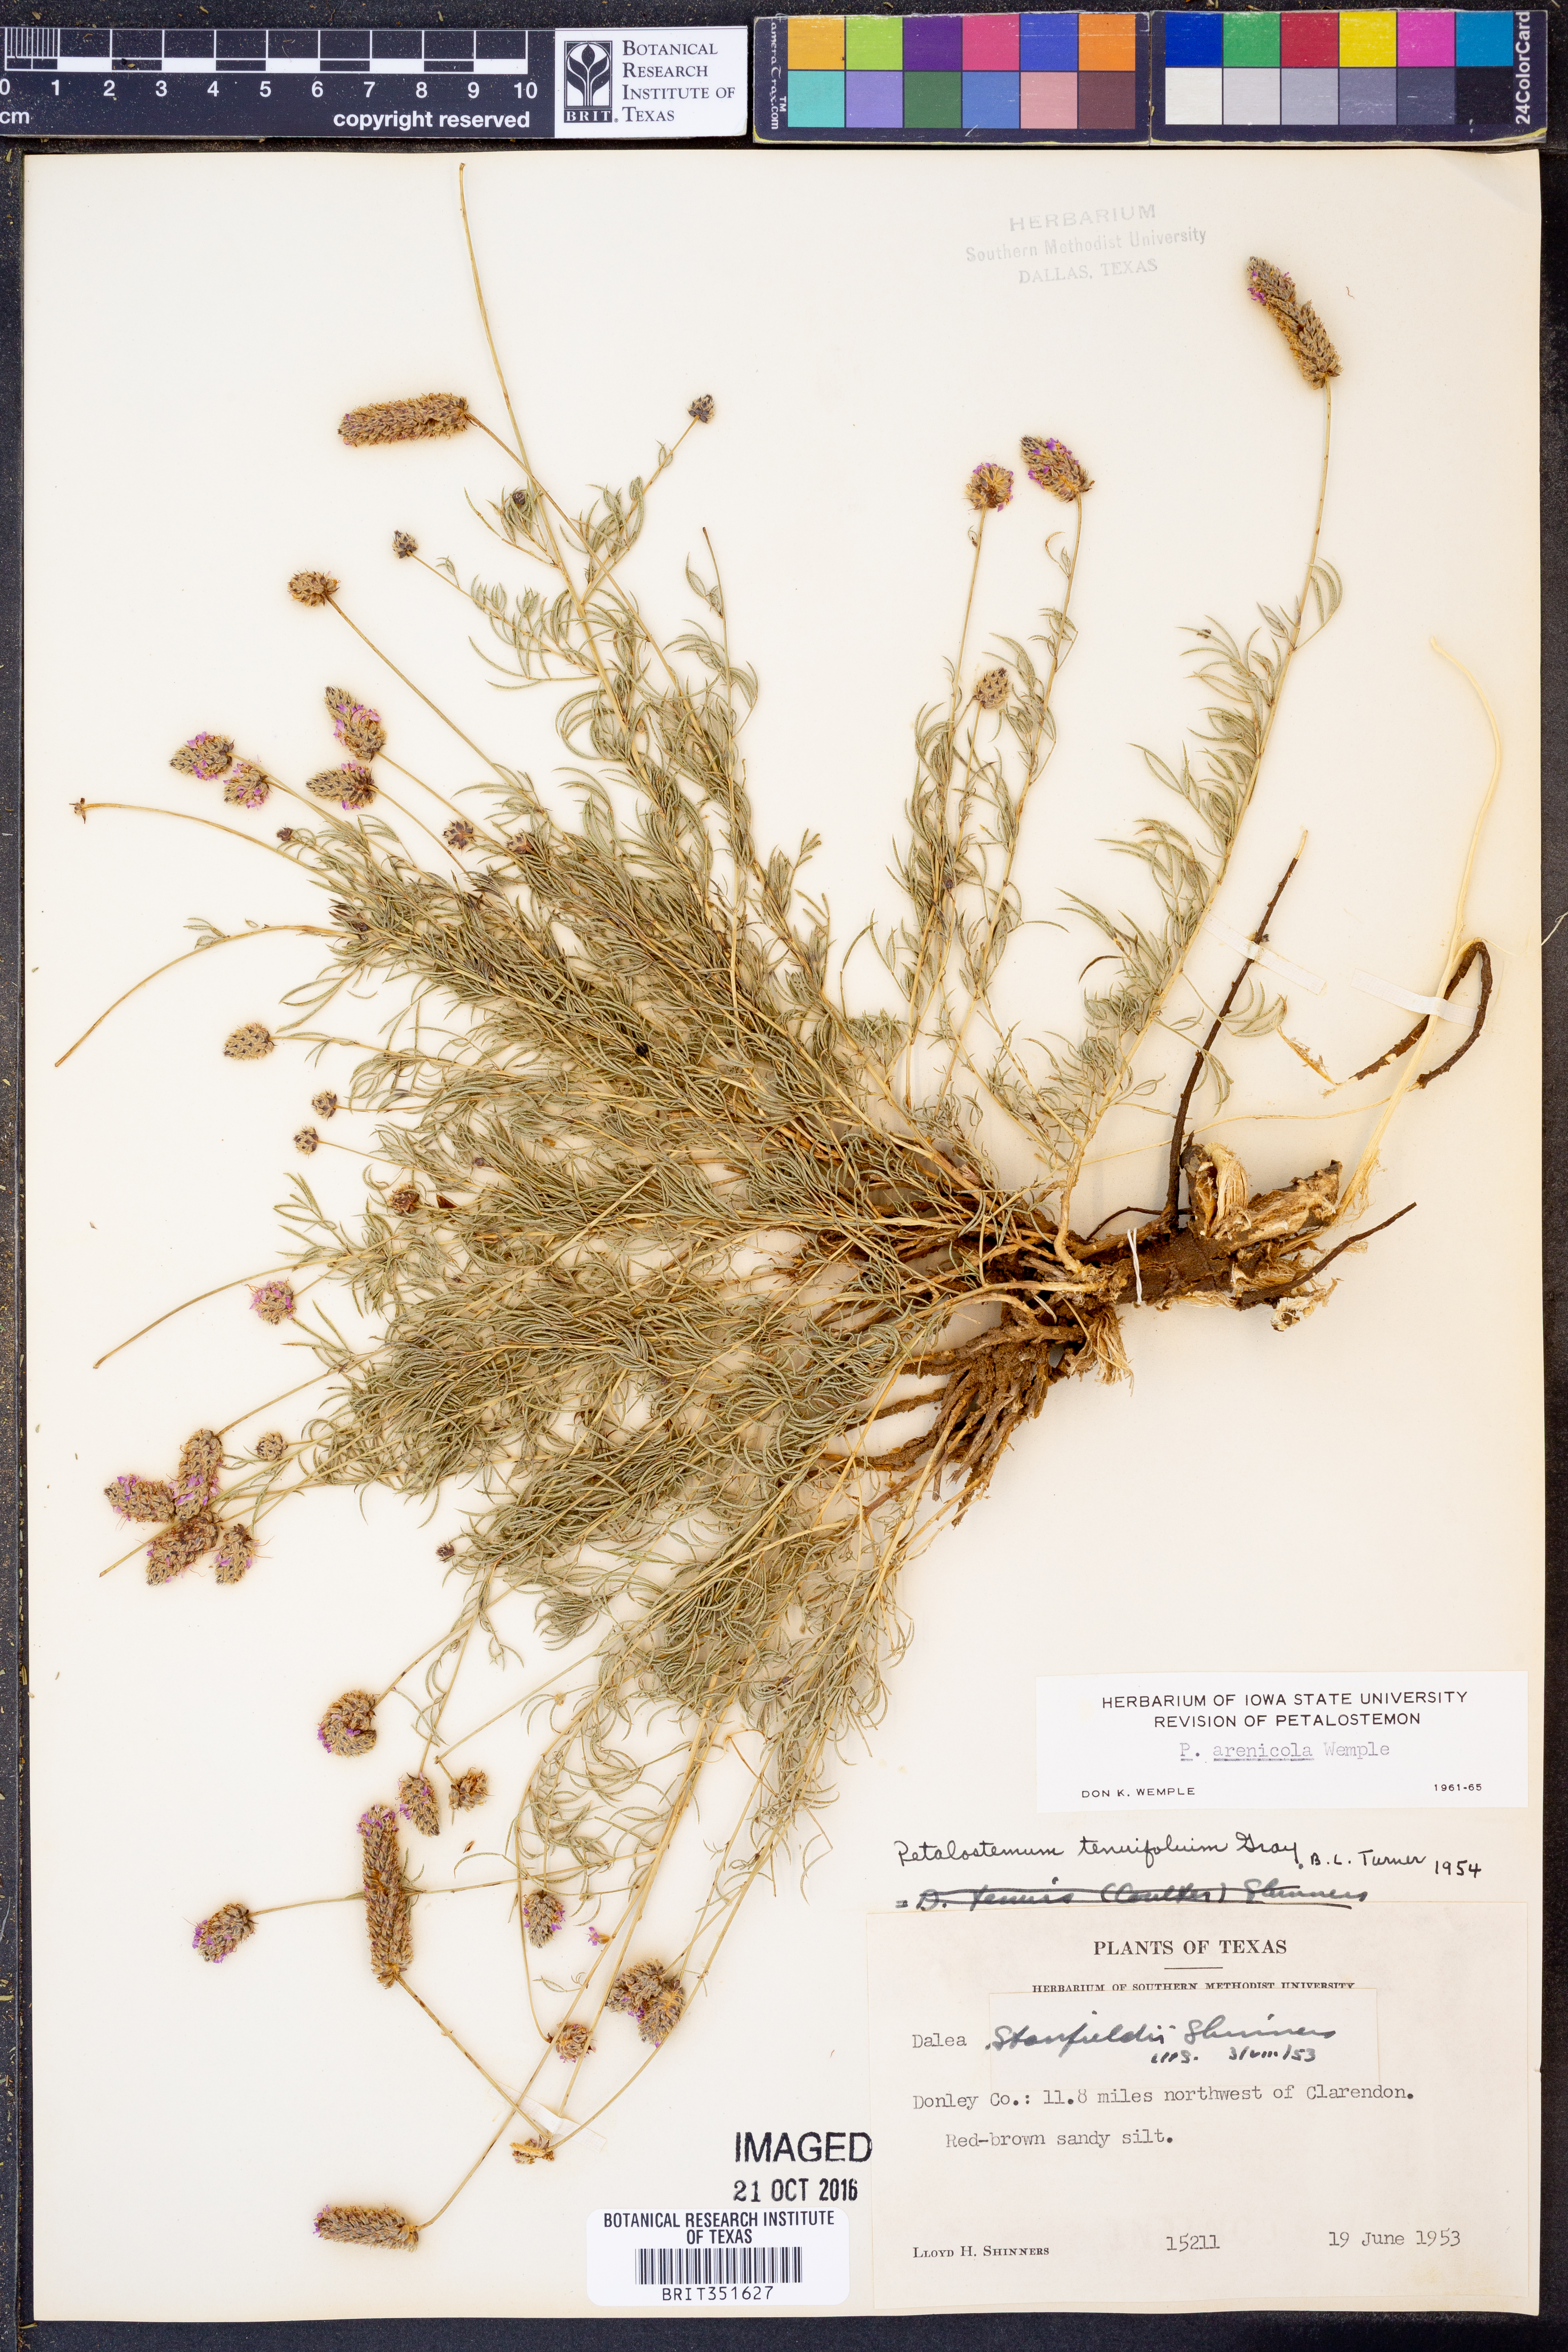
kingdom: Plantae
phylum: Tracheophyta
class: Magnoliopsida
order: Fabales
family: Fabaceae
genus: Dalea
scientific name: Dalea purpurea
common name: Purple prairie-clover
